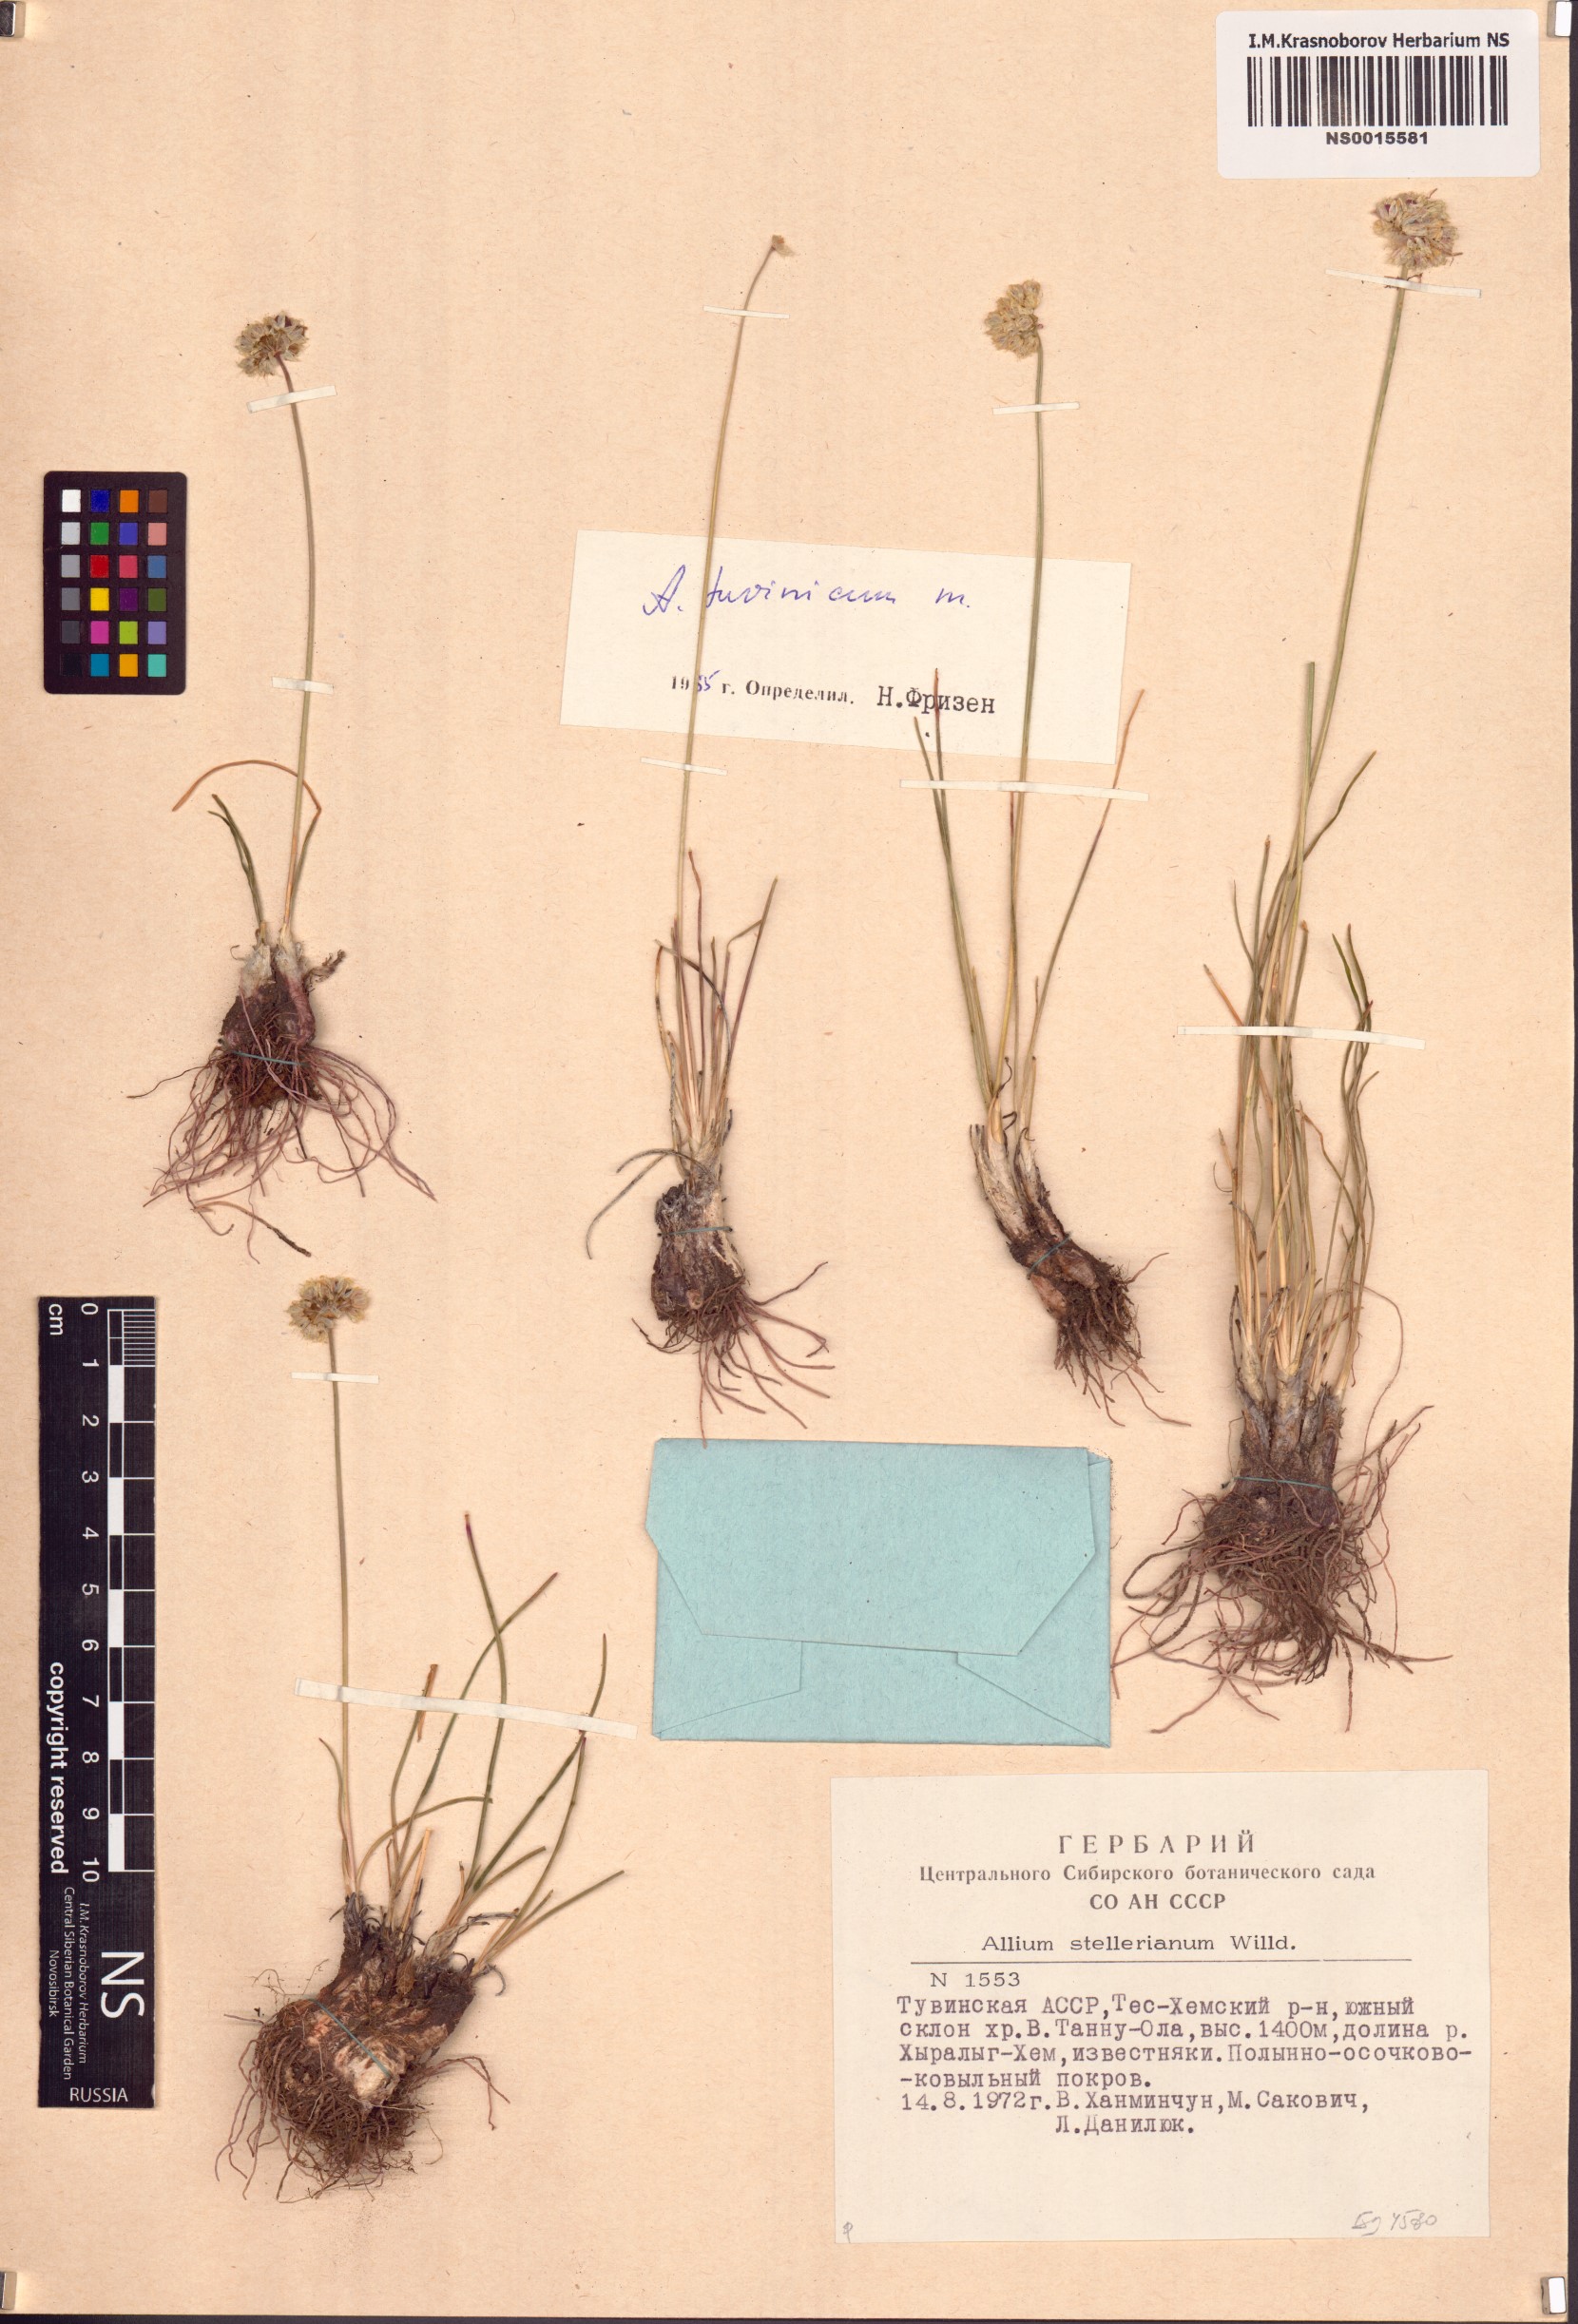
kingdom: Plantae
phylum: Tracheophyta
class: Liliopsida
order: Asparagales
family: Amaryllidaceae
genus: Allium
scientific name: Allium tuvinicum
